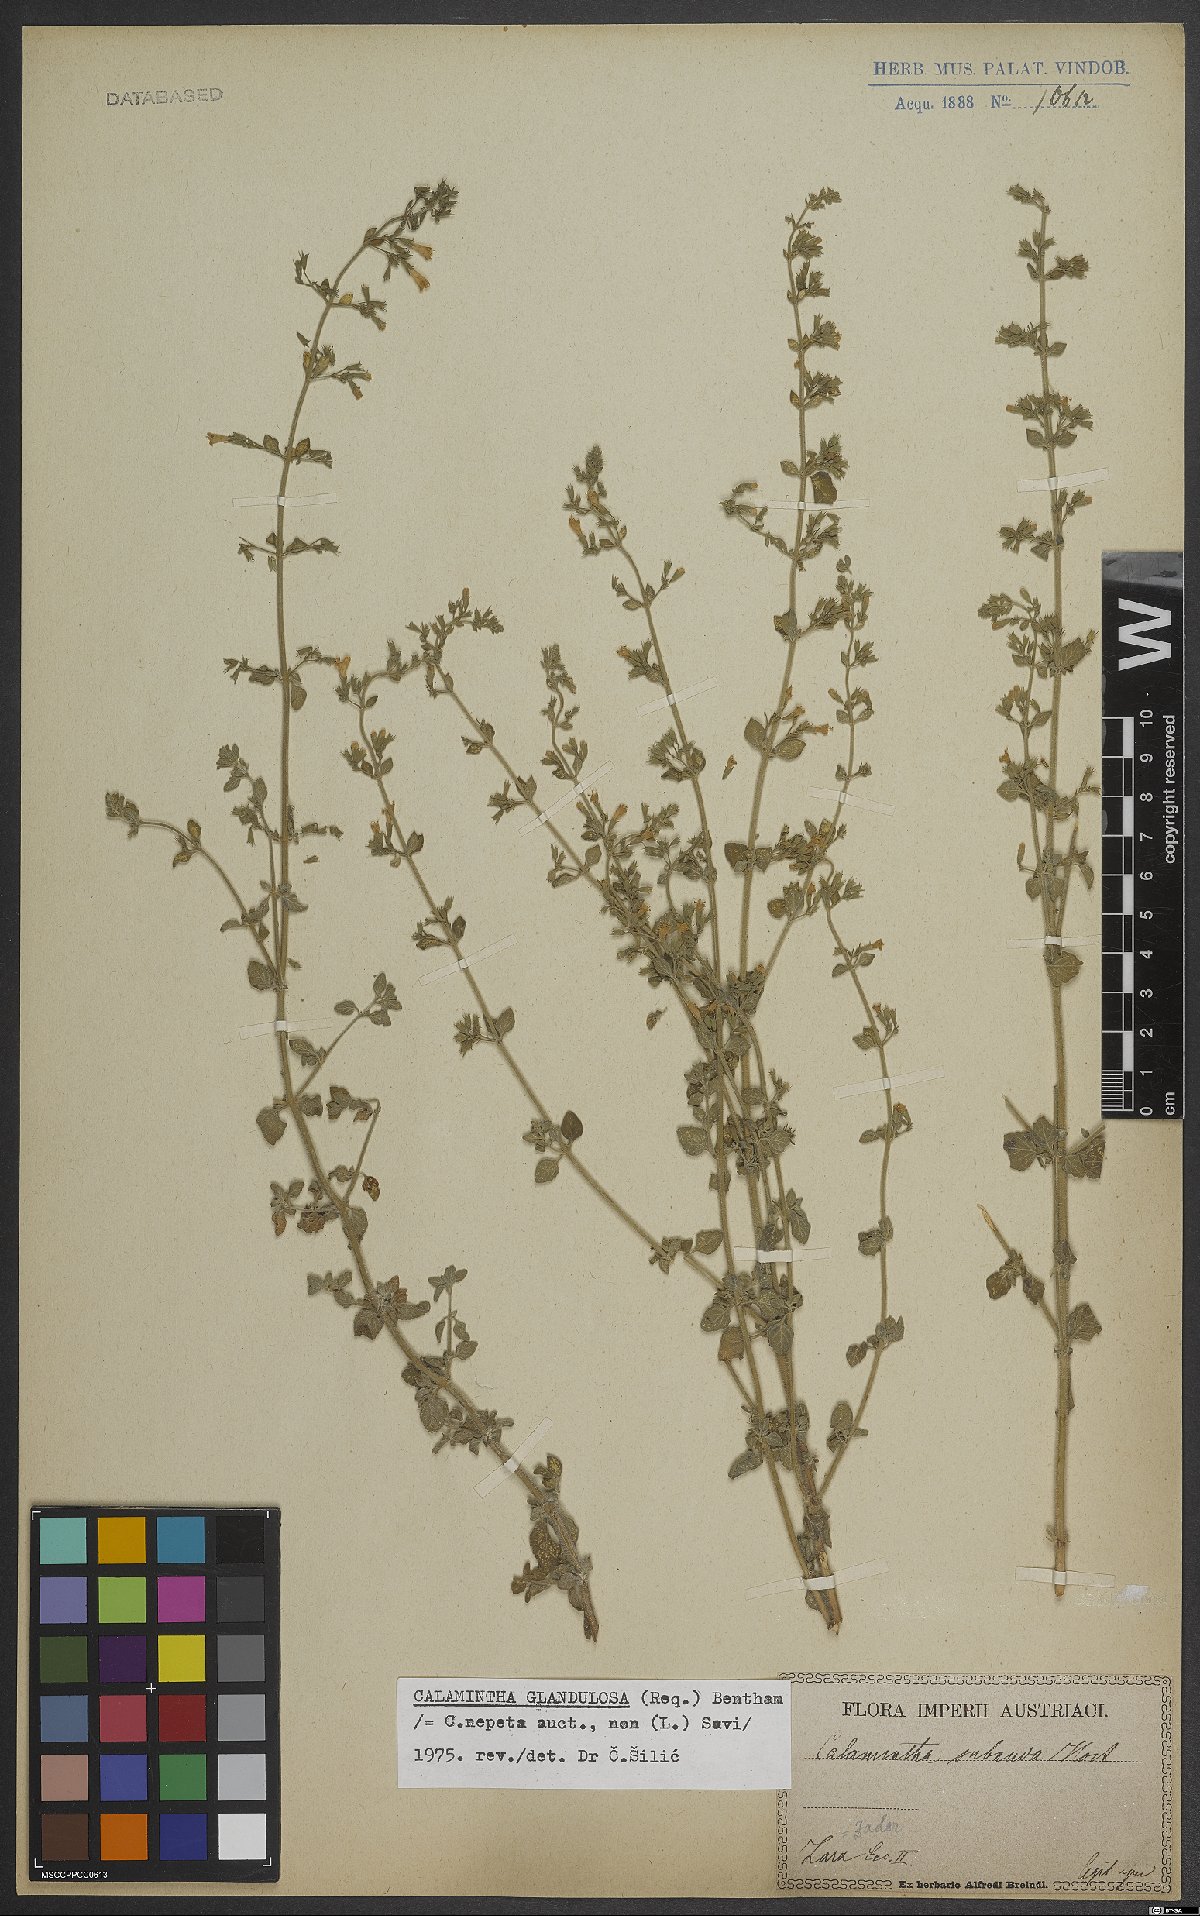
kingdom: Plantae
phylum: Tracheophyta
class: Magnoliopsida
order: Lamiales
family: Lamiaceae
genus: Clinopodium
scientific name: Clinopodium nepeta
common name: Lesser calamint
